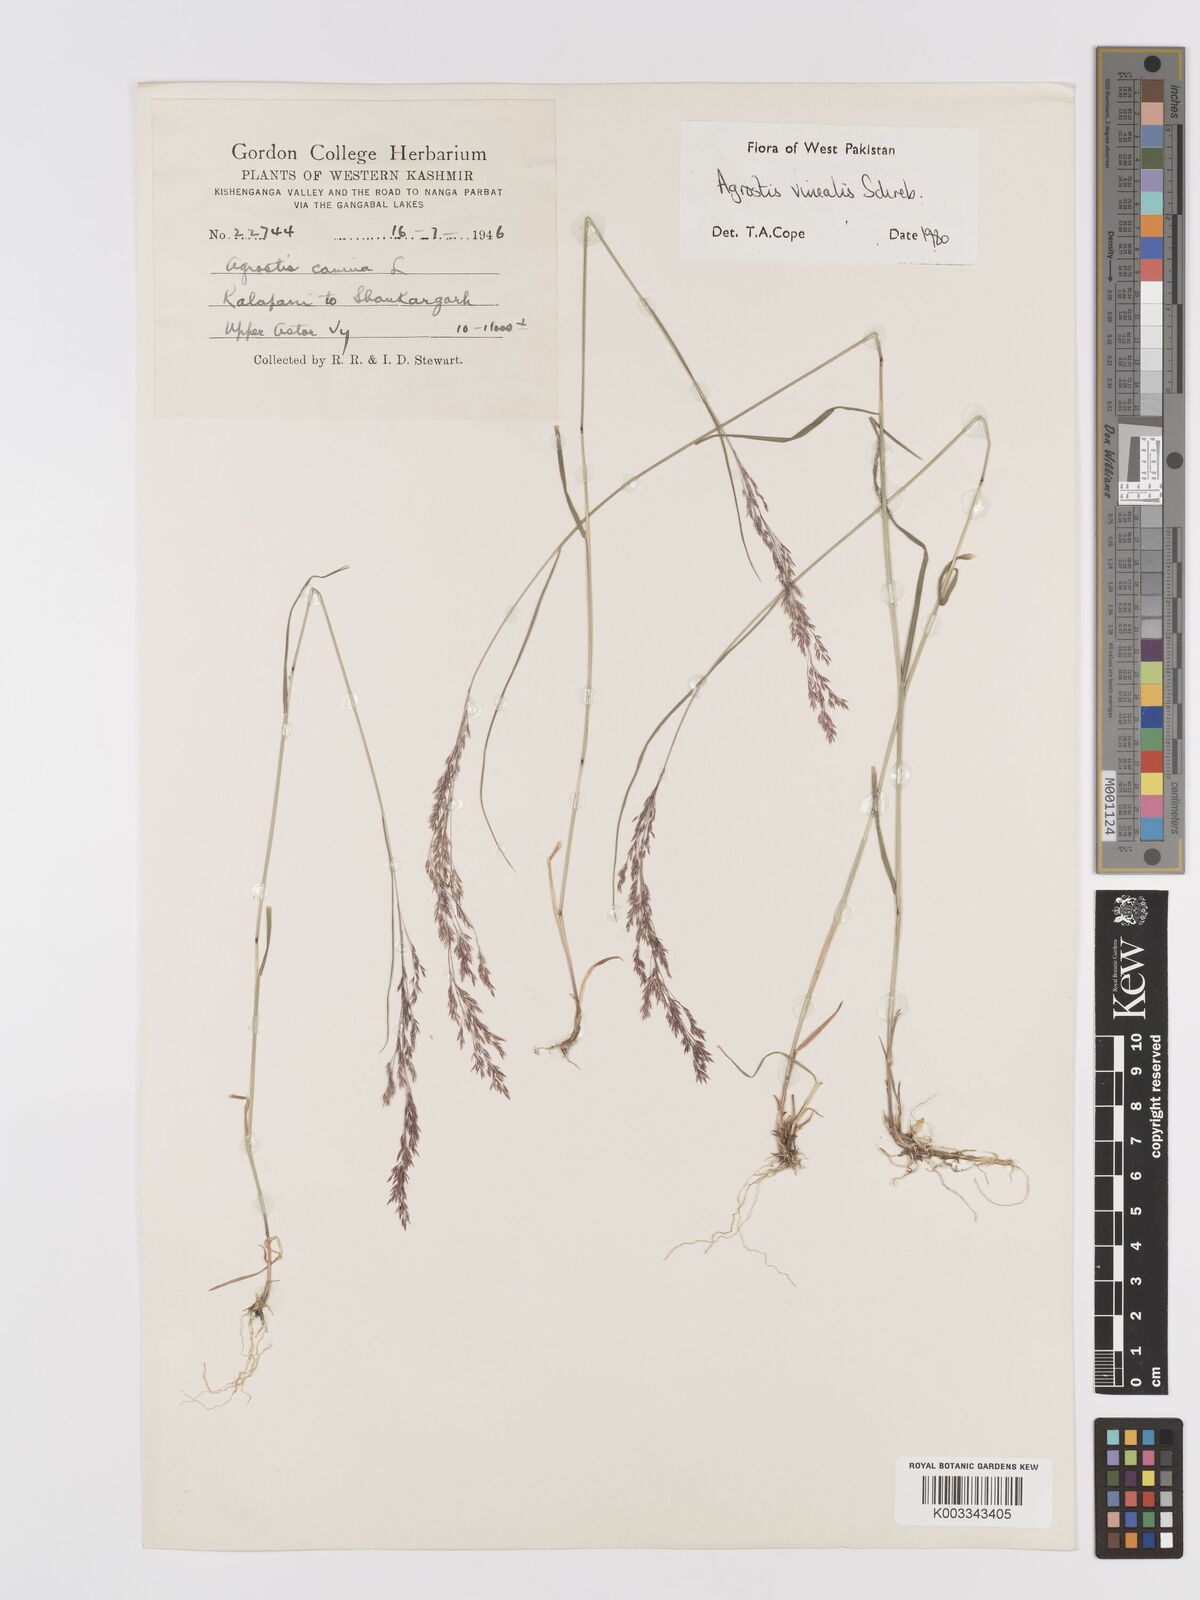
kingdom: Plantae
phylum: Tracheophyta
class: Liliopsida
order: Poales
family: Poaceae
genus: Agrostis
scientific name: Agrostis vinealis
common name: Brown bent
